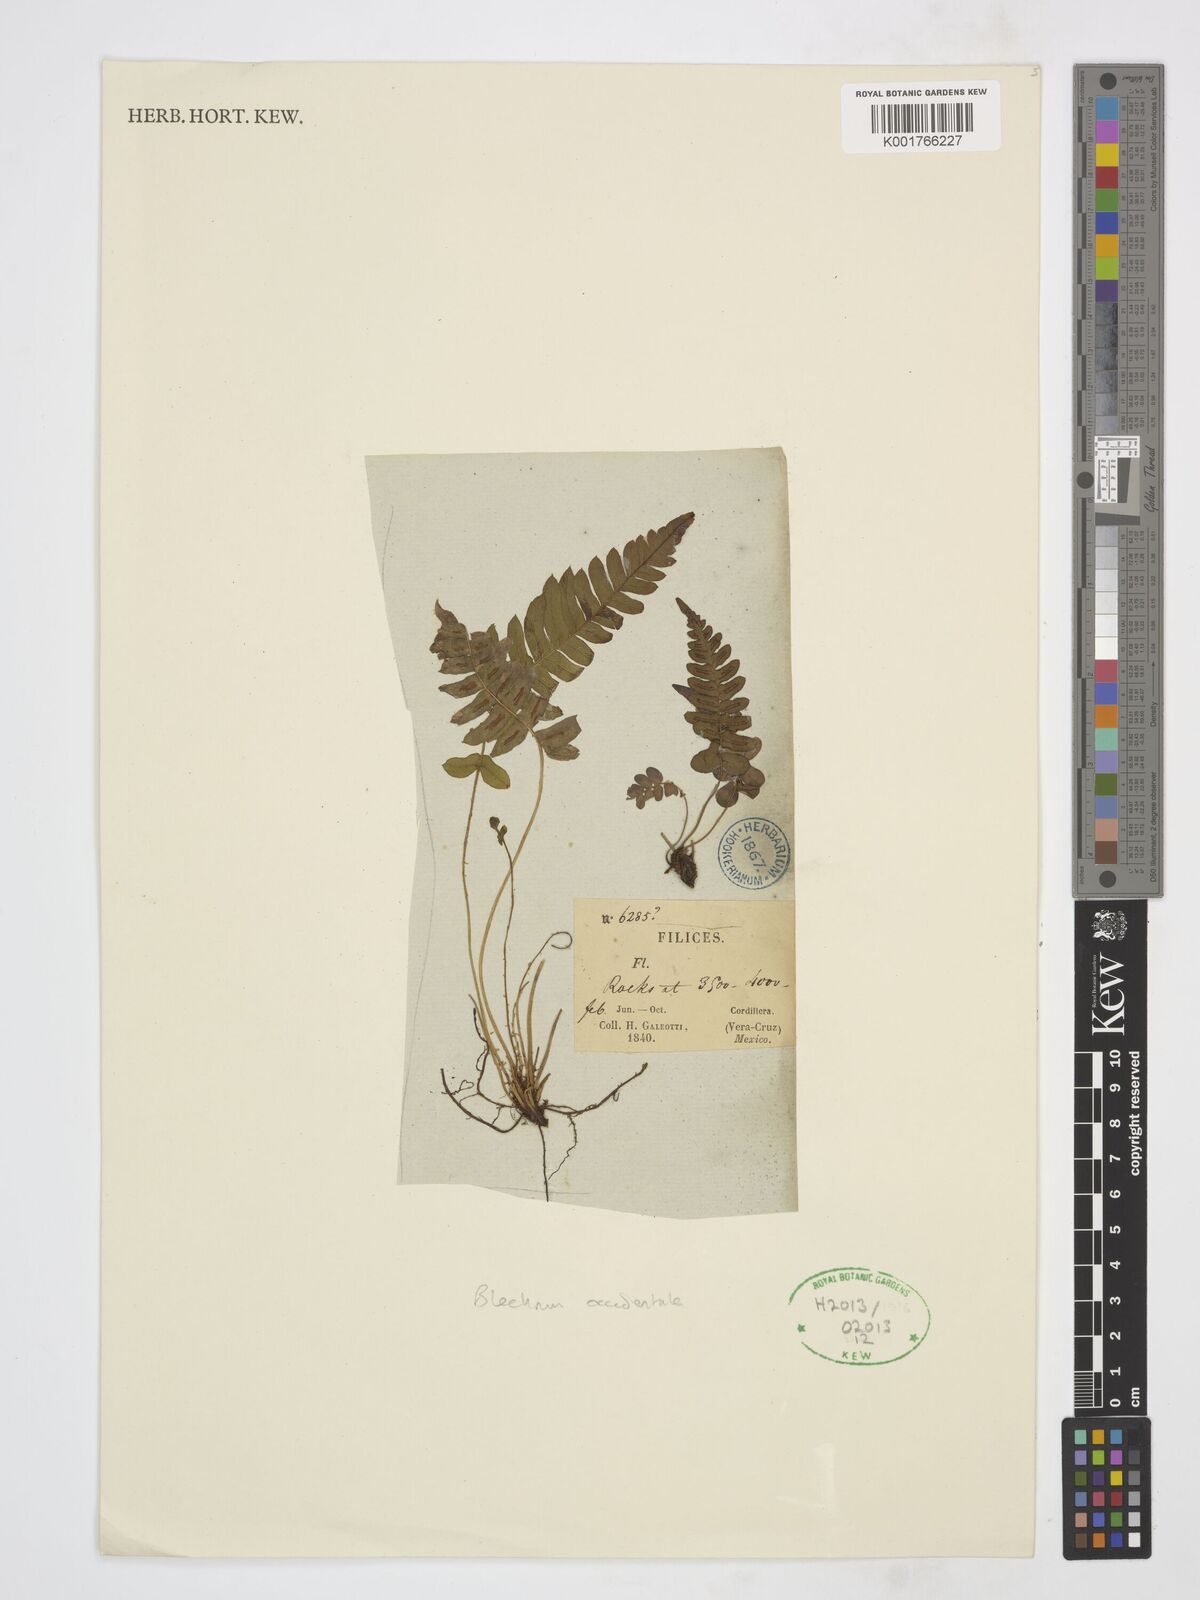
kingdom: Plantae
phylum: Tracheophyta
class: Polypodiopsida
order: Polypodiales
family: Blechnaceae
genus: Blechnum
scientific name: Blechnum occidentale
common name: Hammock fern
